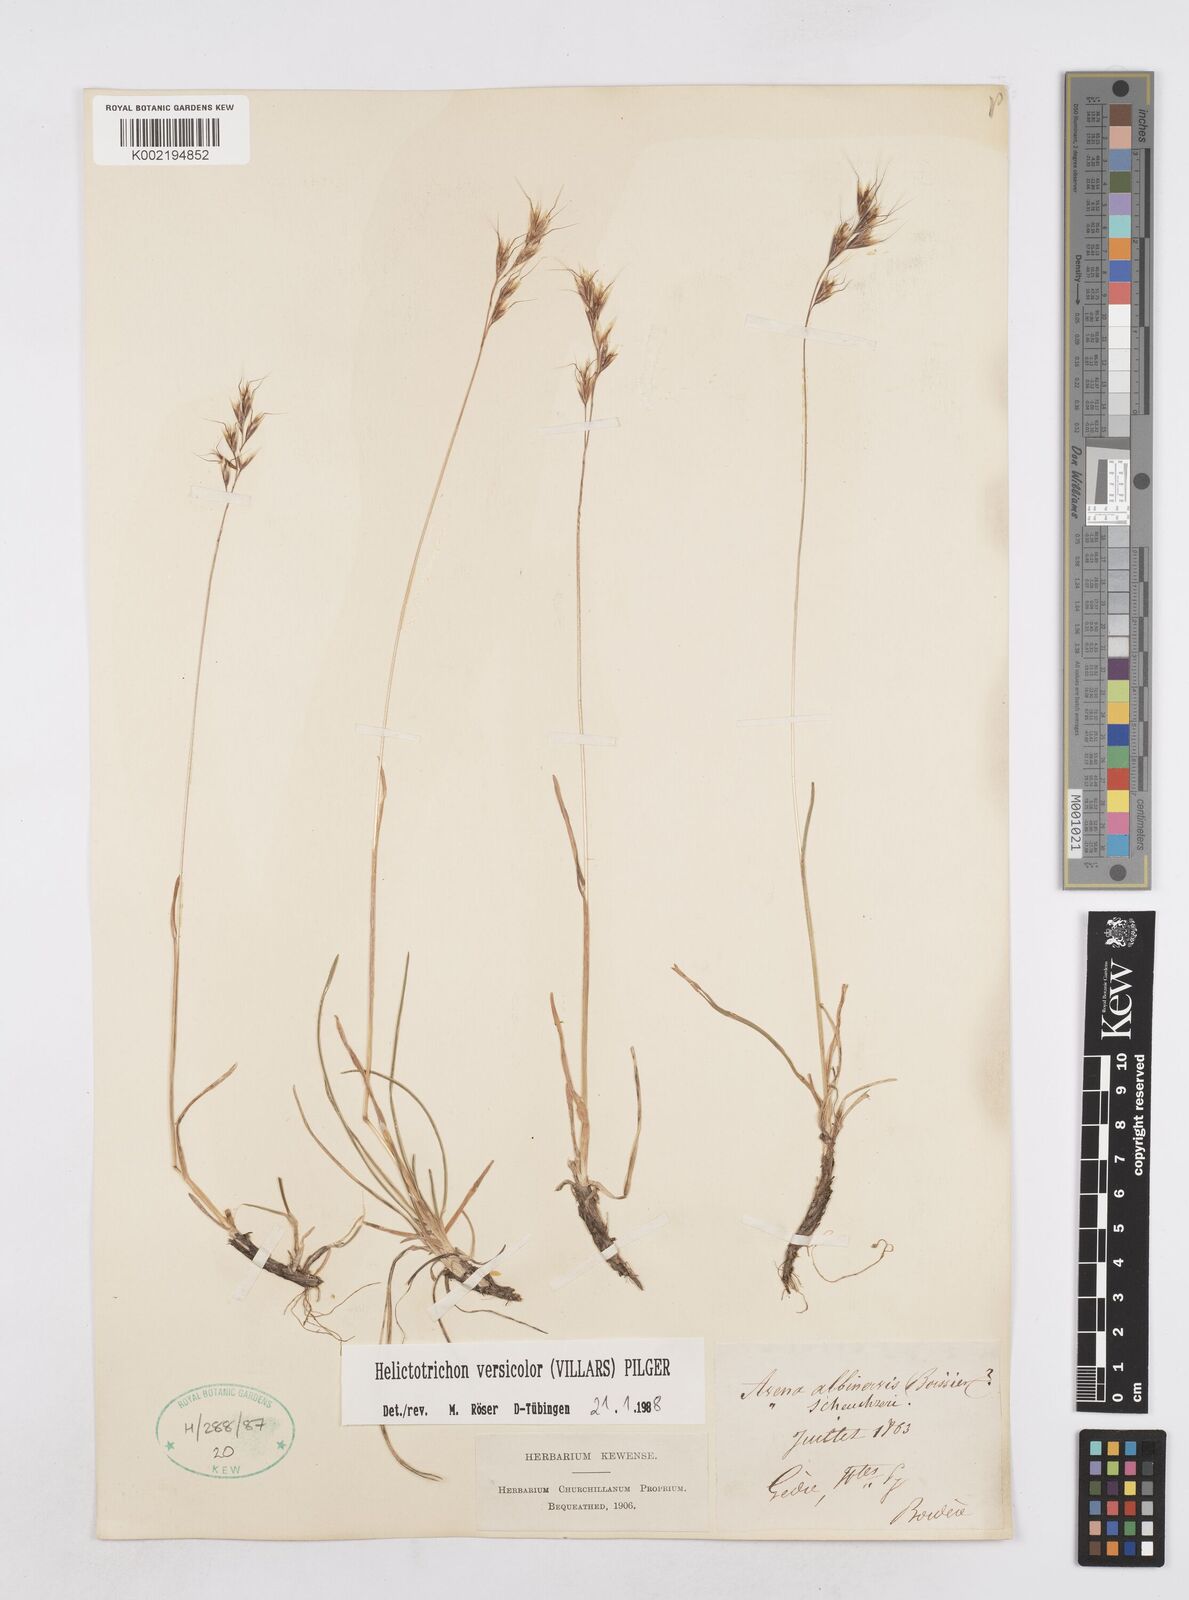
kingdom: Plantae
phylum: Tracheophyta
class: Liliopsida
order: Poales
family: Poaceae
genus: Helictochloa
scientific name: Helictochloa versicolor
